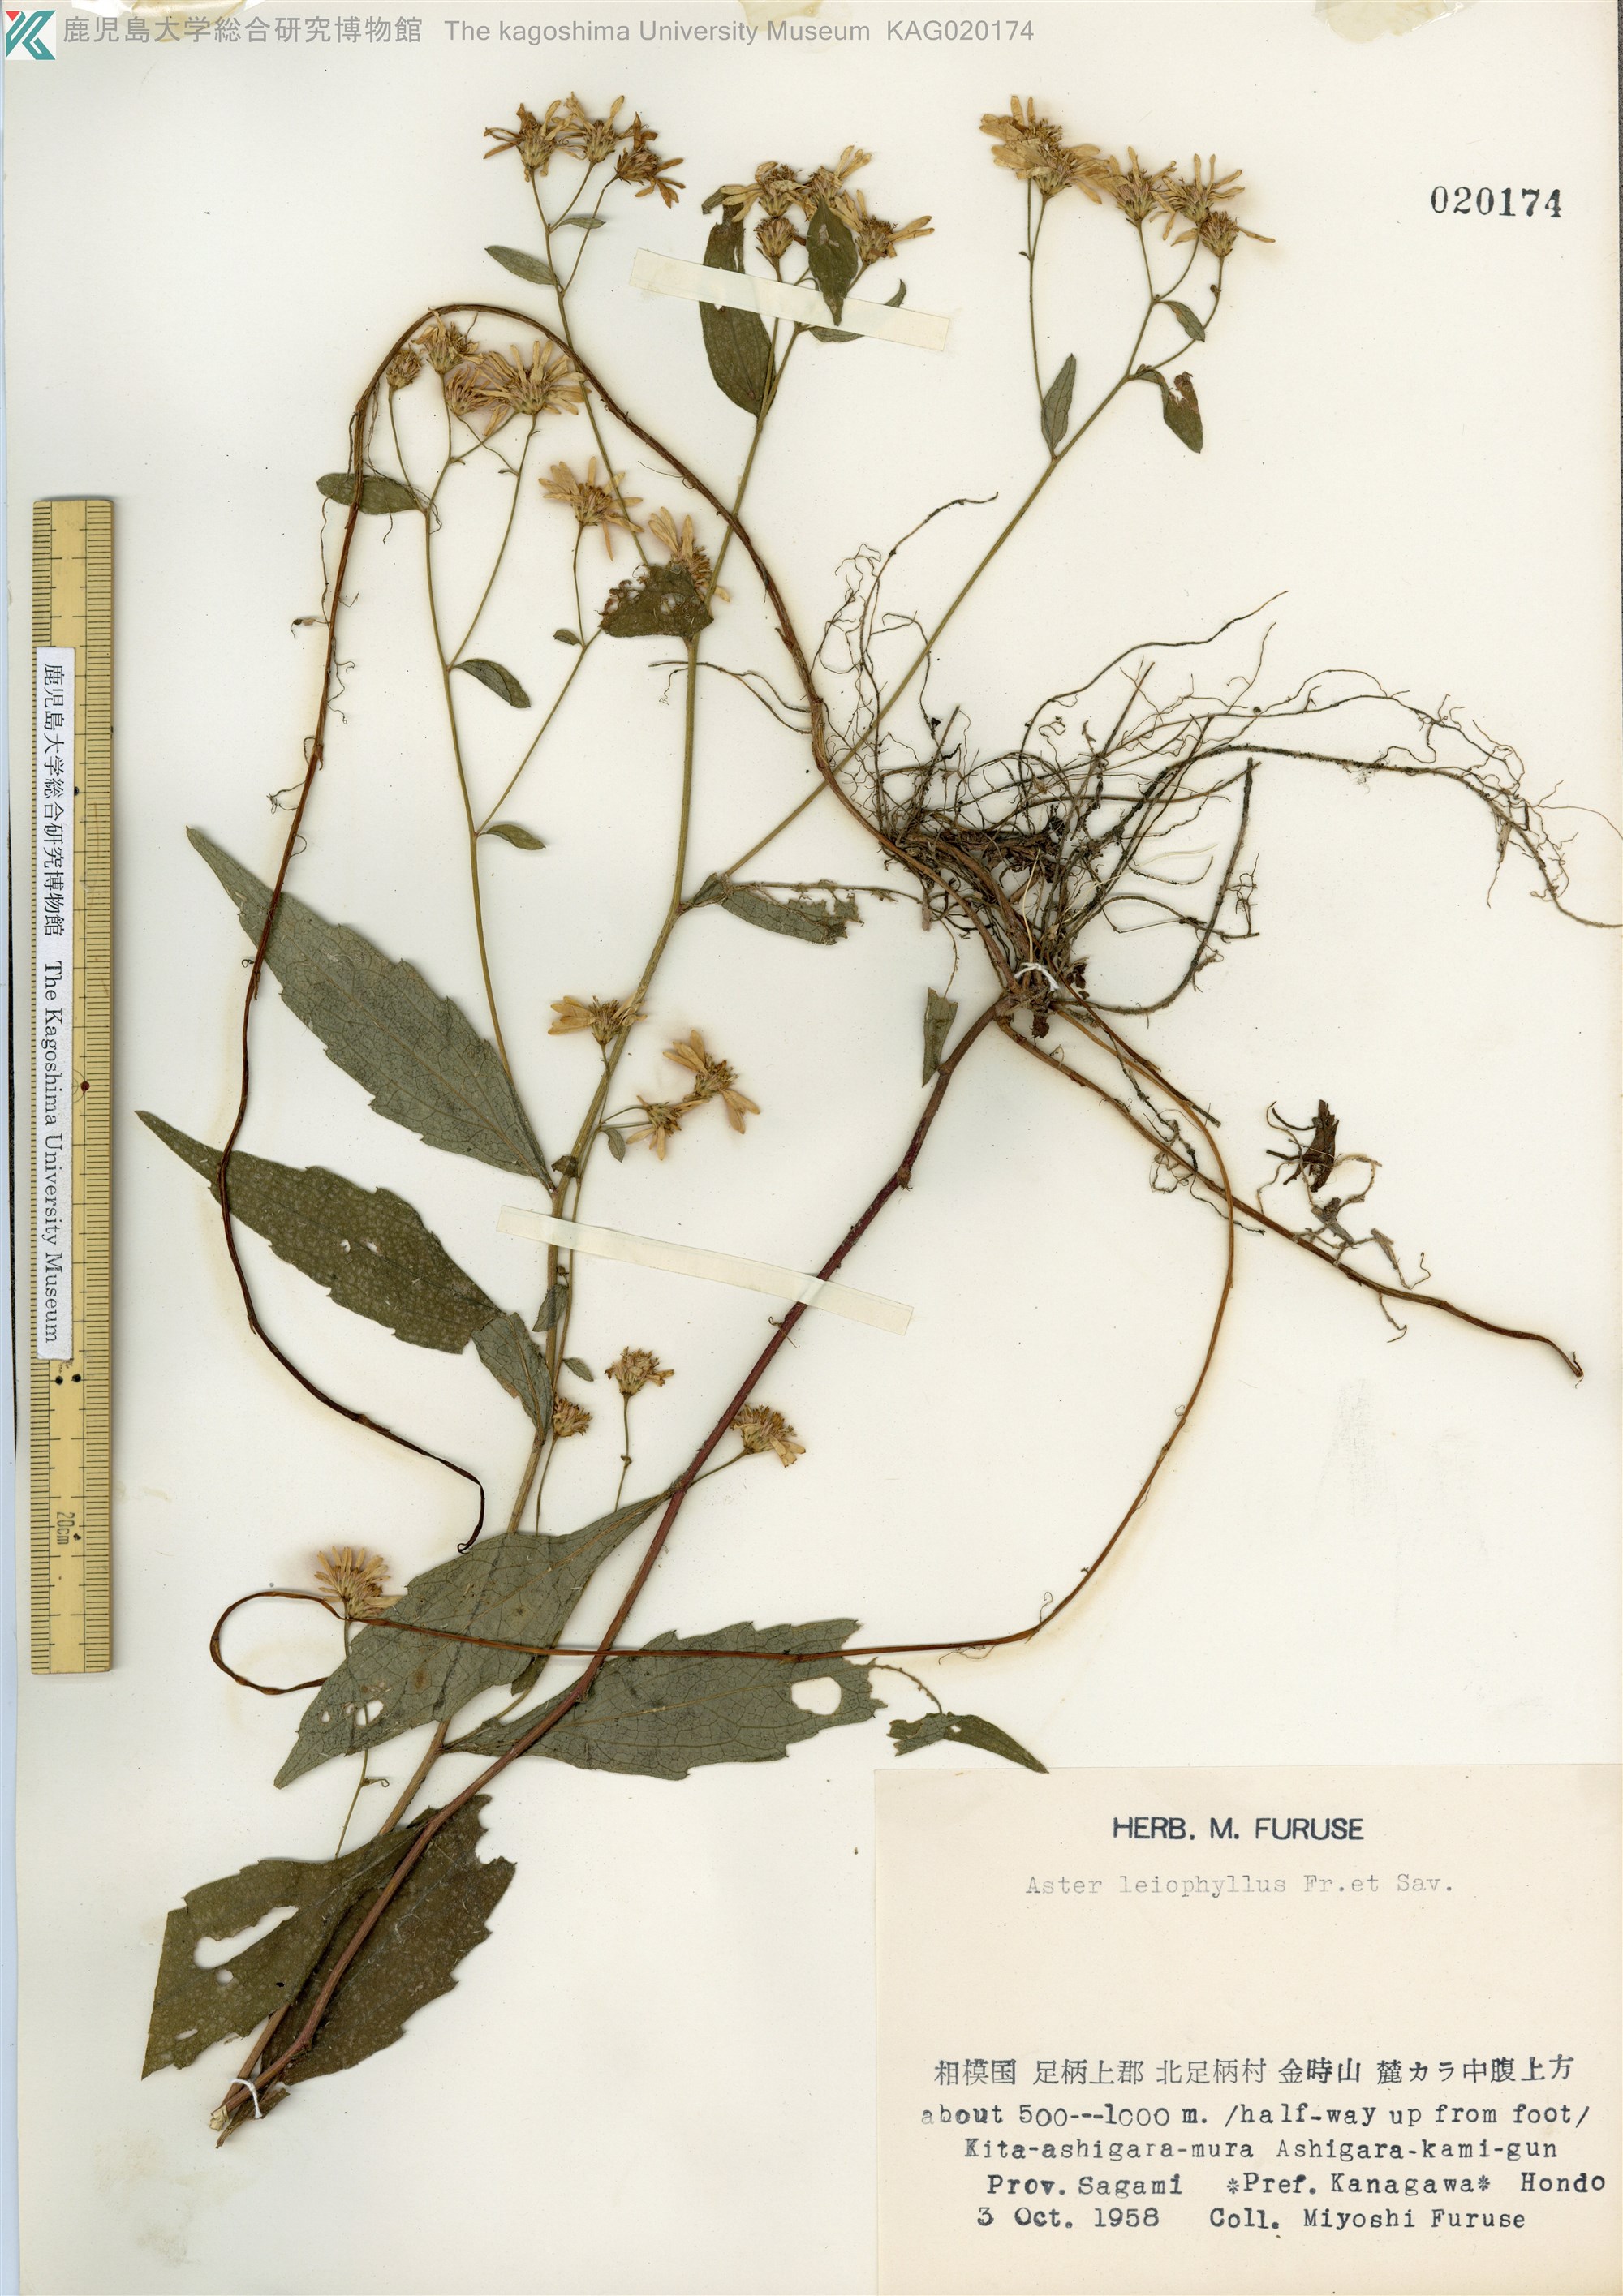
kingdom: Plantae
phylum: Tracheophyta
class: Magnoliopsida
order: Asterales
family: Asteraceae
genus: Aster
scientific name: Aster ageratoides
